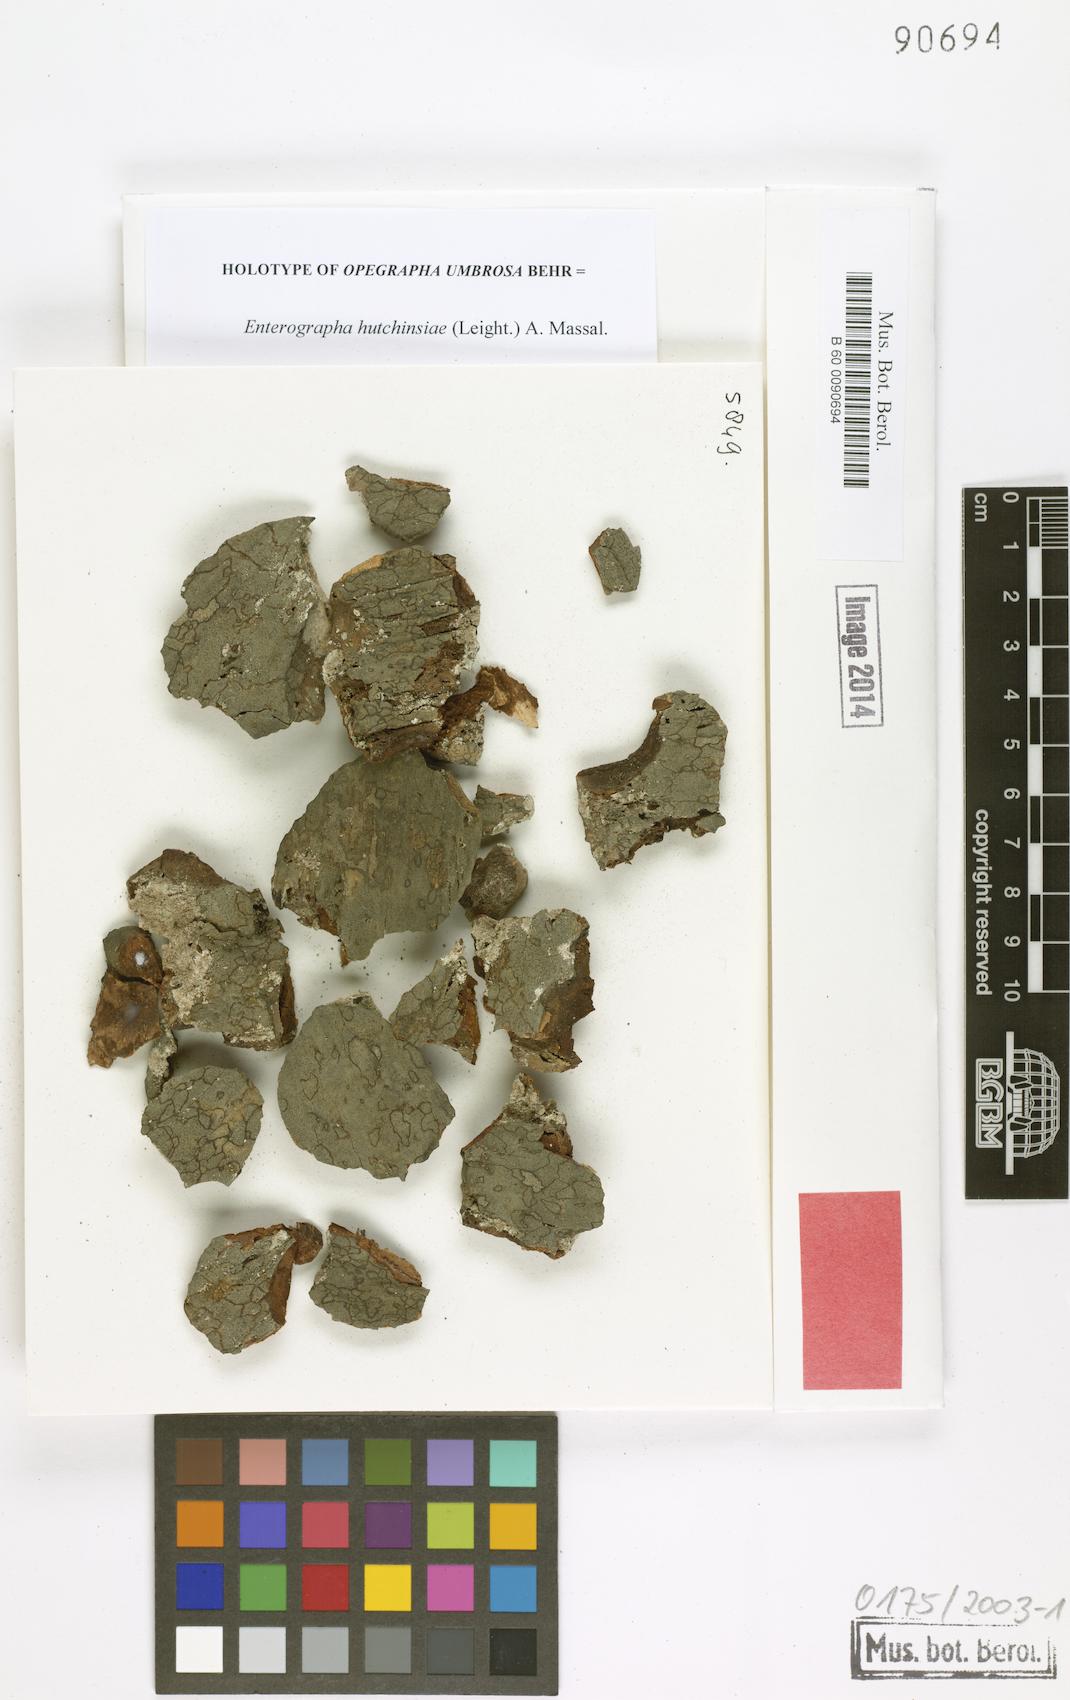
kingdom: Fungi
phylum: Ascomycota
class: Arthoniomycetes
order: Arthoniales
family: Opegraphaceae
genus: Opegrapha
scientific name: Opegrapha
